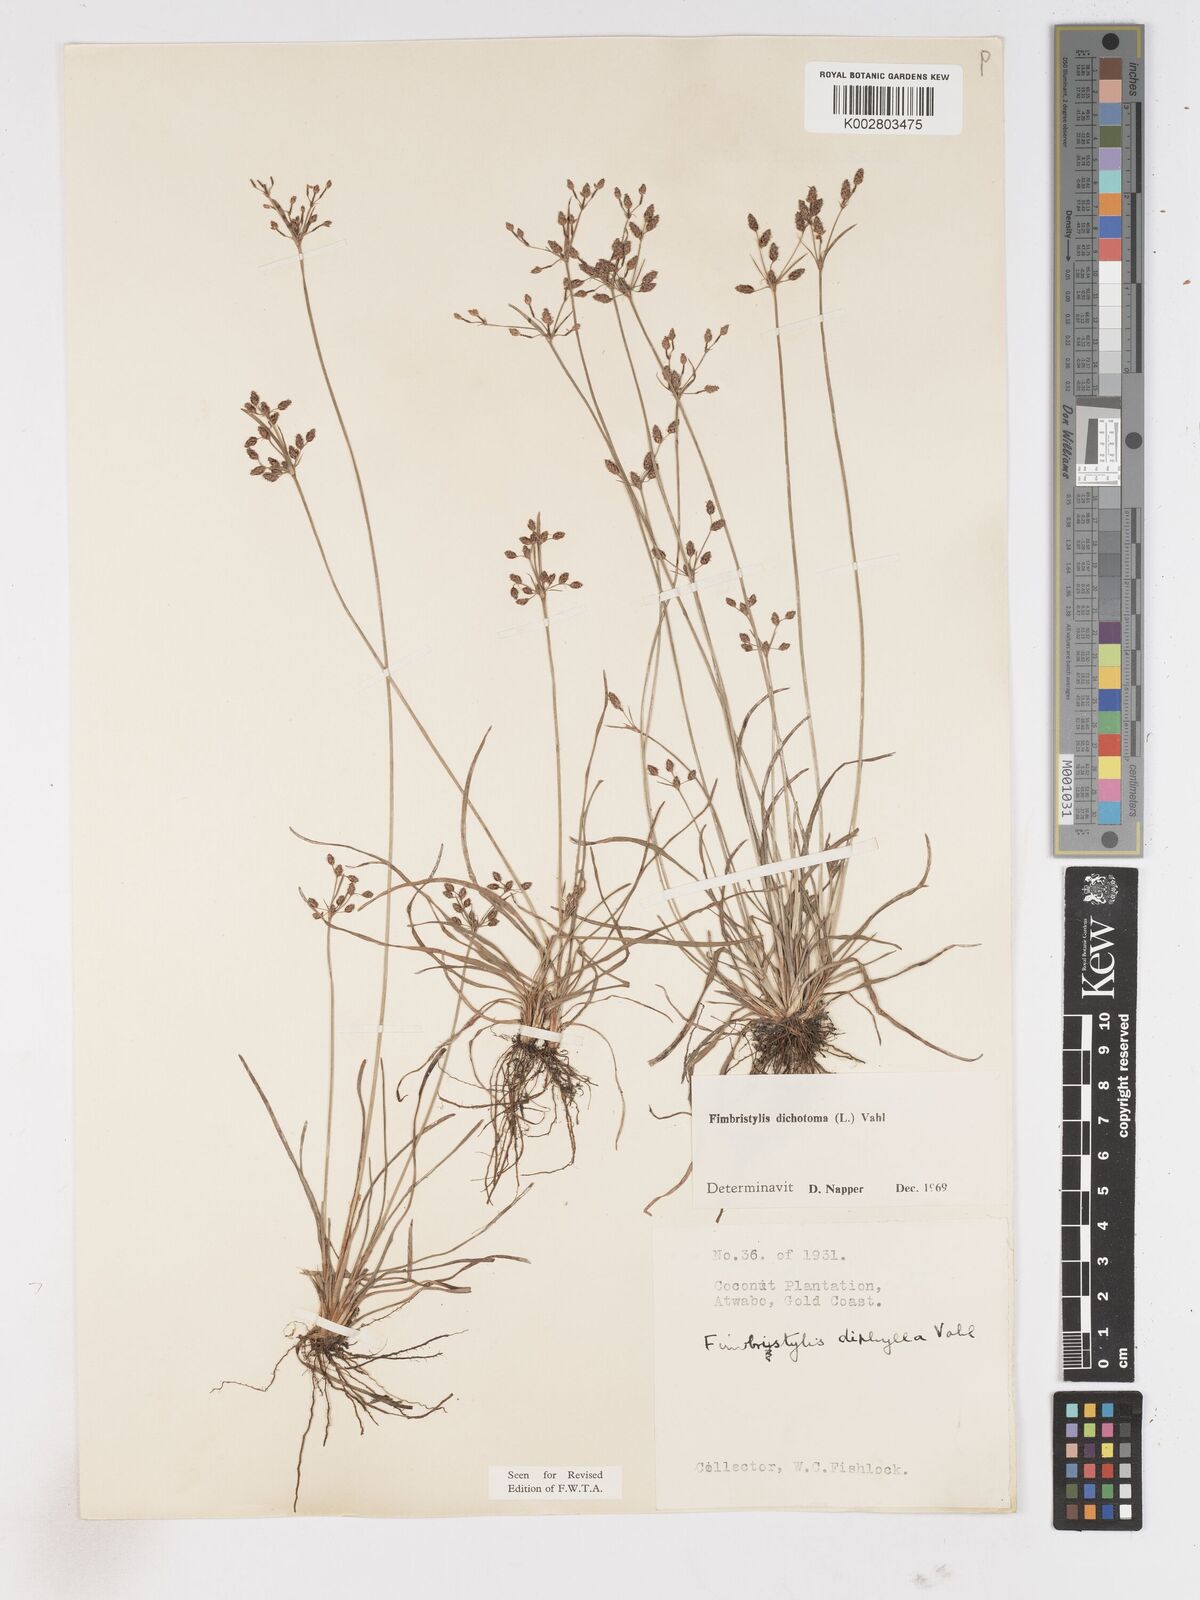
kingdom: Plantae
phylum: Tracheophyta
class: Liliopsida
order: Poales
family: Cyperaceae
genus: Fimbristylis
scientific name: Fimbristylis dichotoma
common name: Forked fimbry
